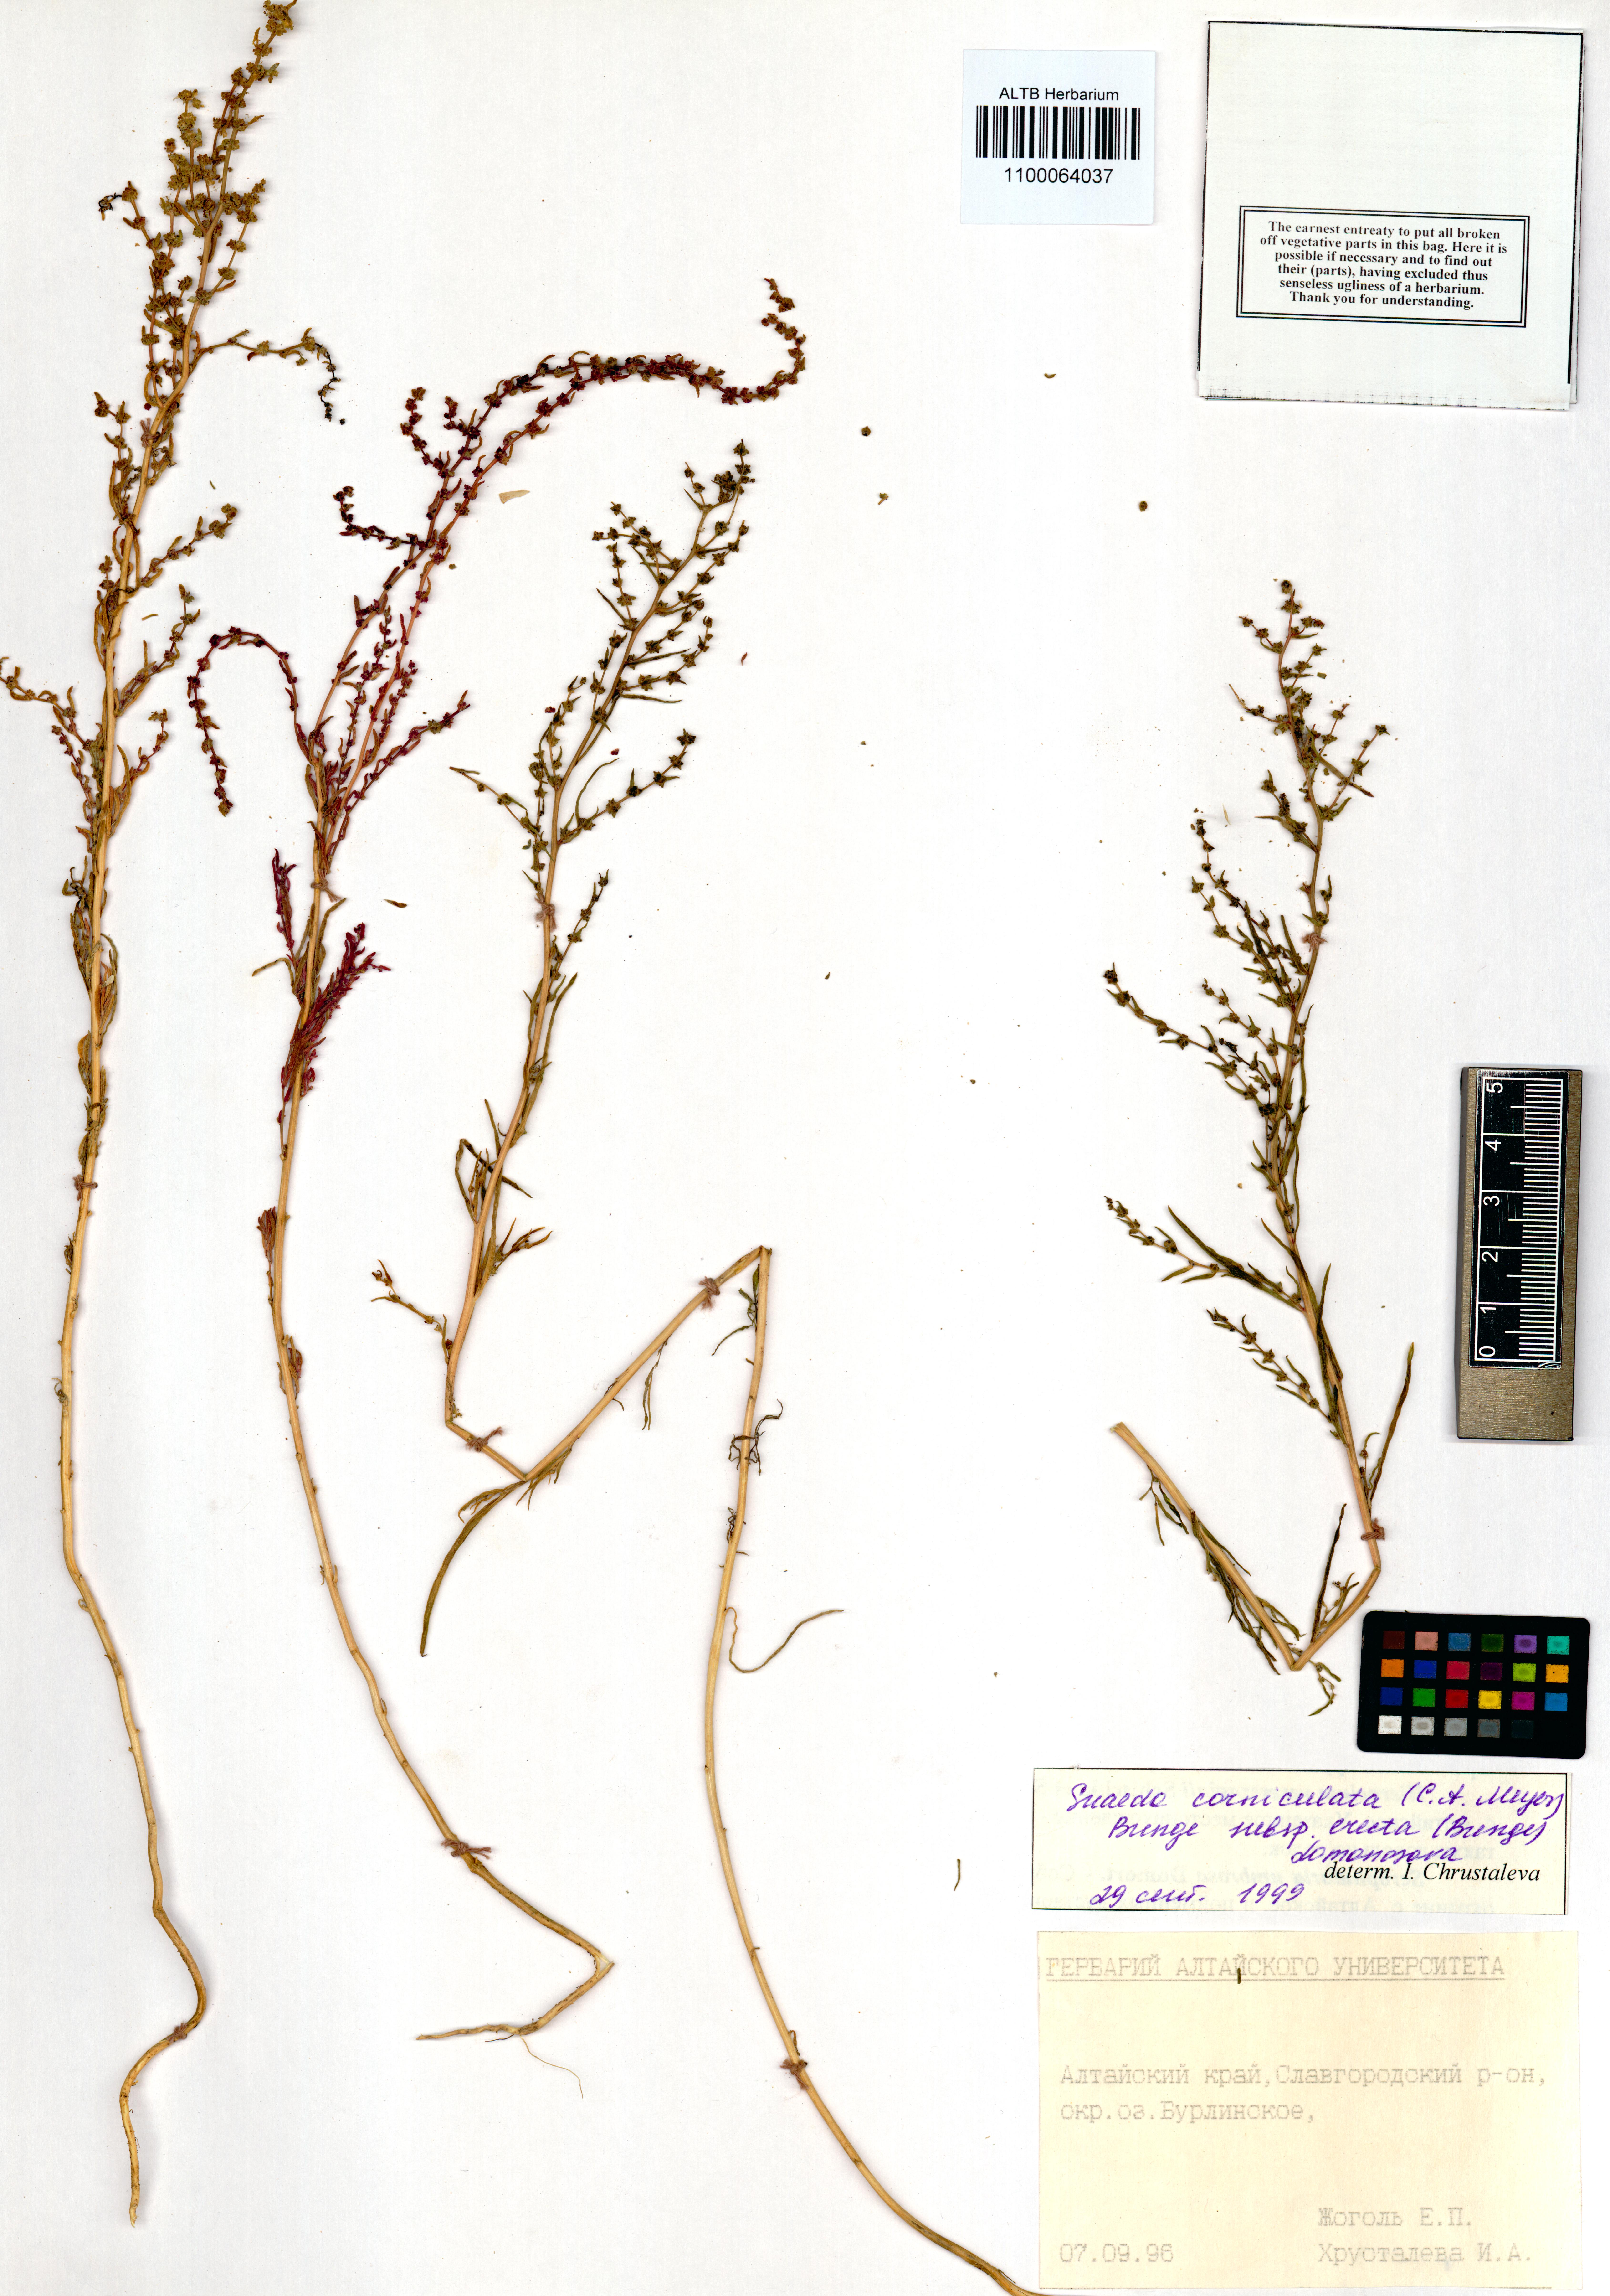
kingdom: Plantae
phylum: Tracheophyta
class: Magnoliopsida
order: Caryophyllales
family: Amaranthaceae
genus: Suaeda
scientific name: Suaeda corniculata
